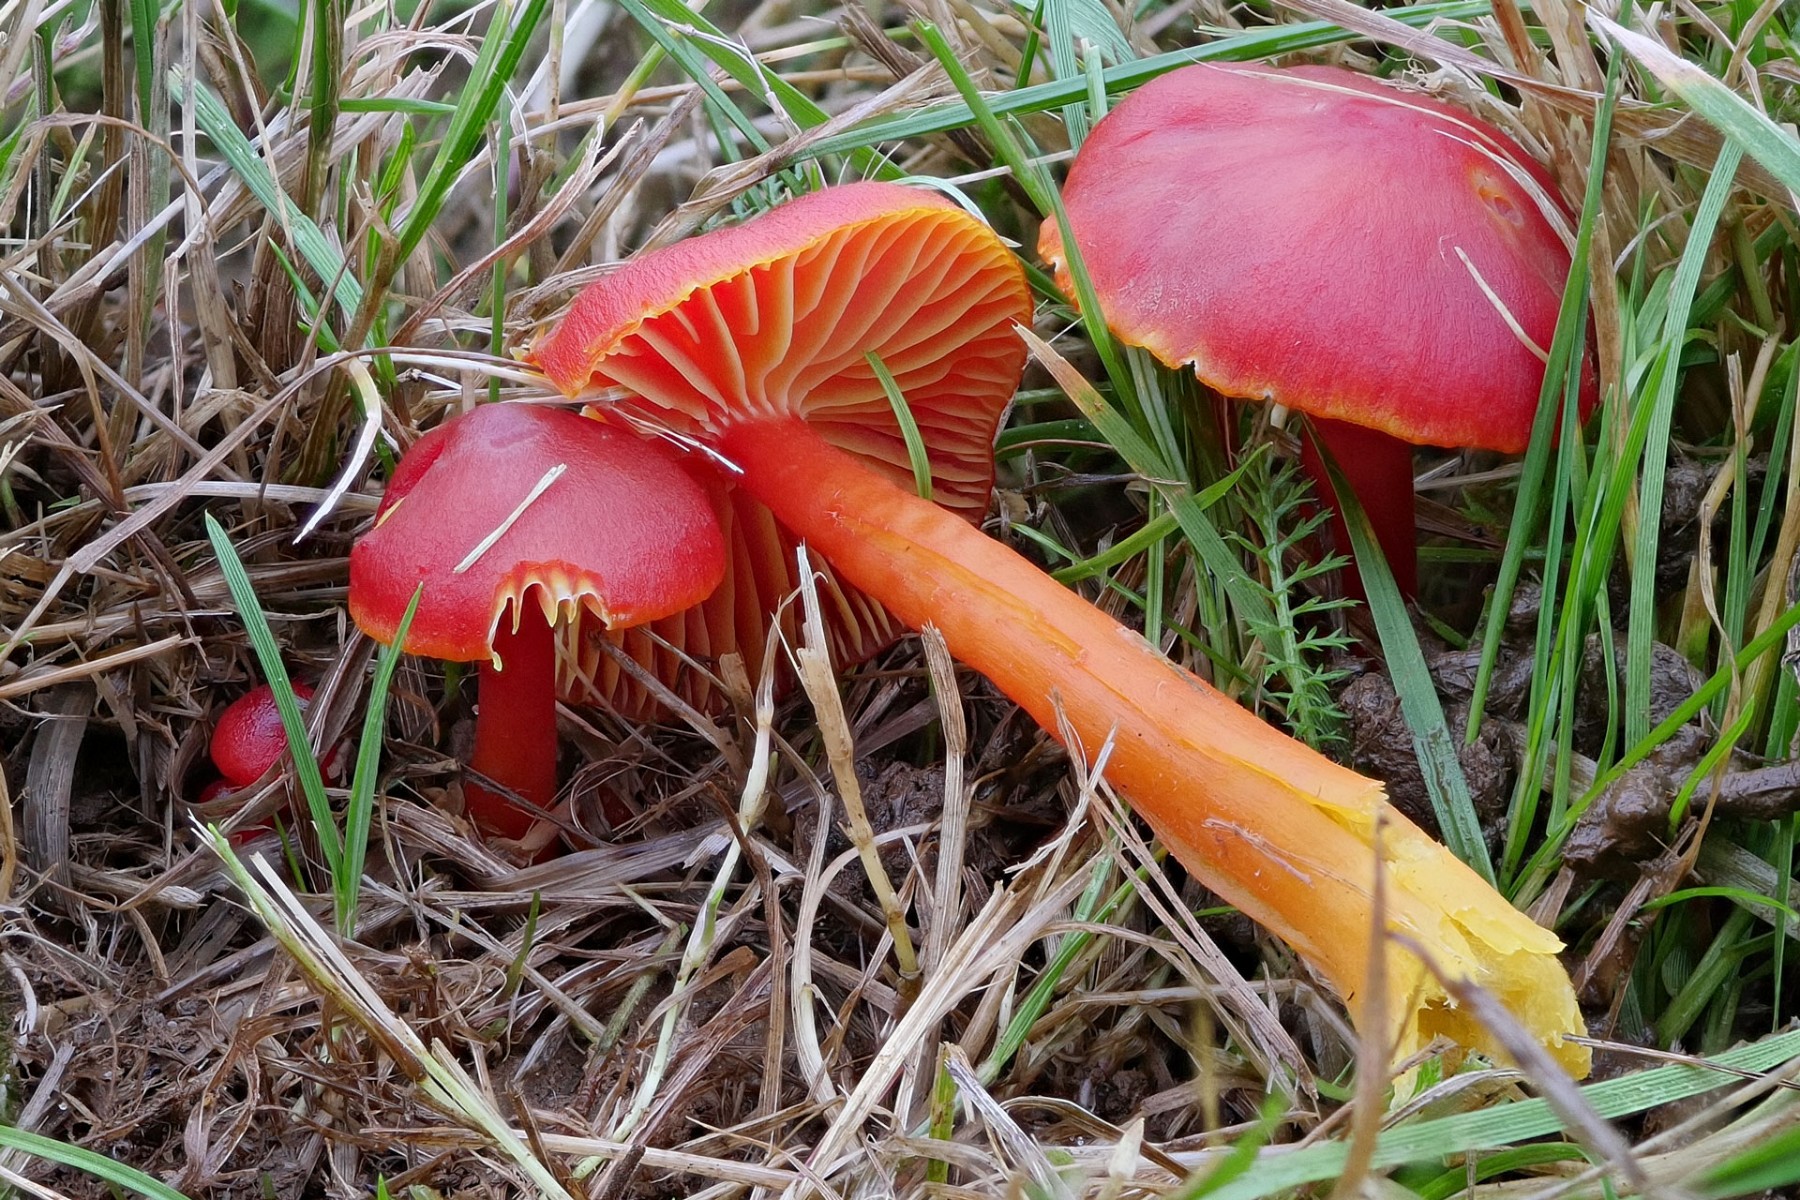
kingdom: Fungi
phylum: Basidiomycota
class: Agaricomycetes
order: Agaricales
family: Hygrophoraceae
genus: Hygrocybe
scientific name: Hygrocybe coccinea
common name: cinnober-vokshat
